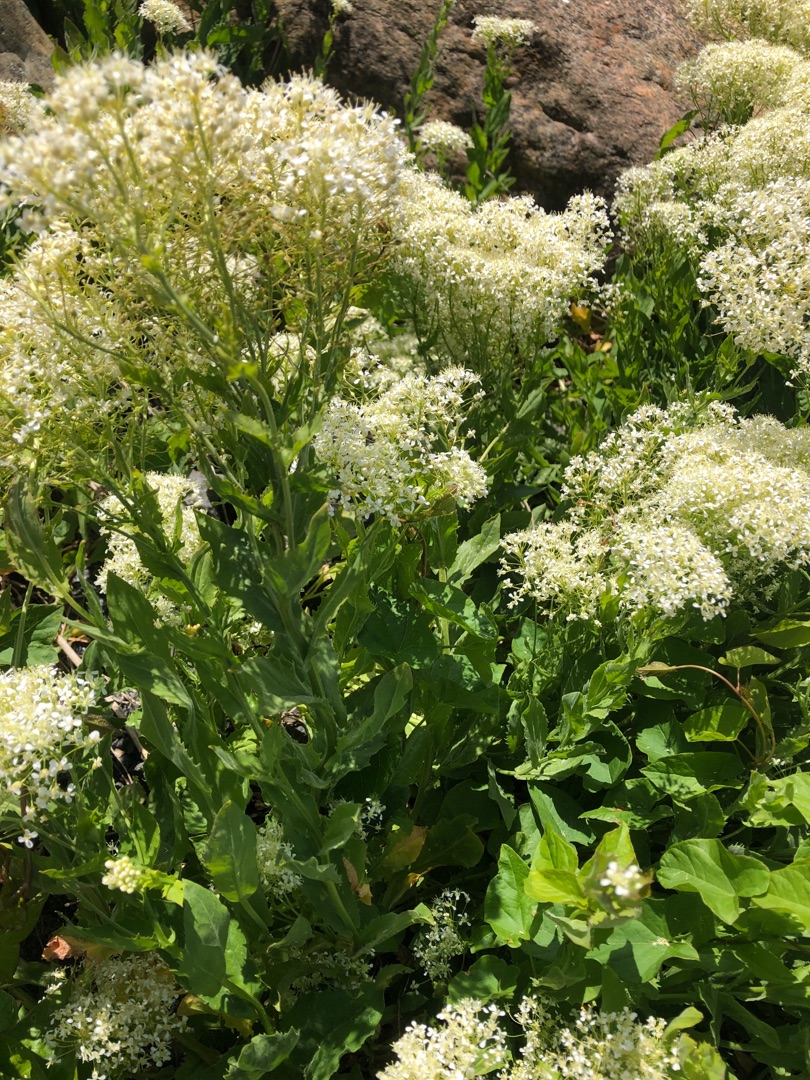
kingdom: Plantae
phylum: Tracheophyta
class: Magnoliopsida
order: Brassicales
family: Brassicaceae
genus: Lepidium
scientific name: Lepidium draba
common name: Hjerte-karse
